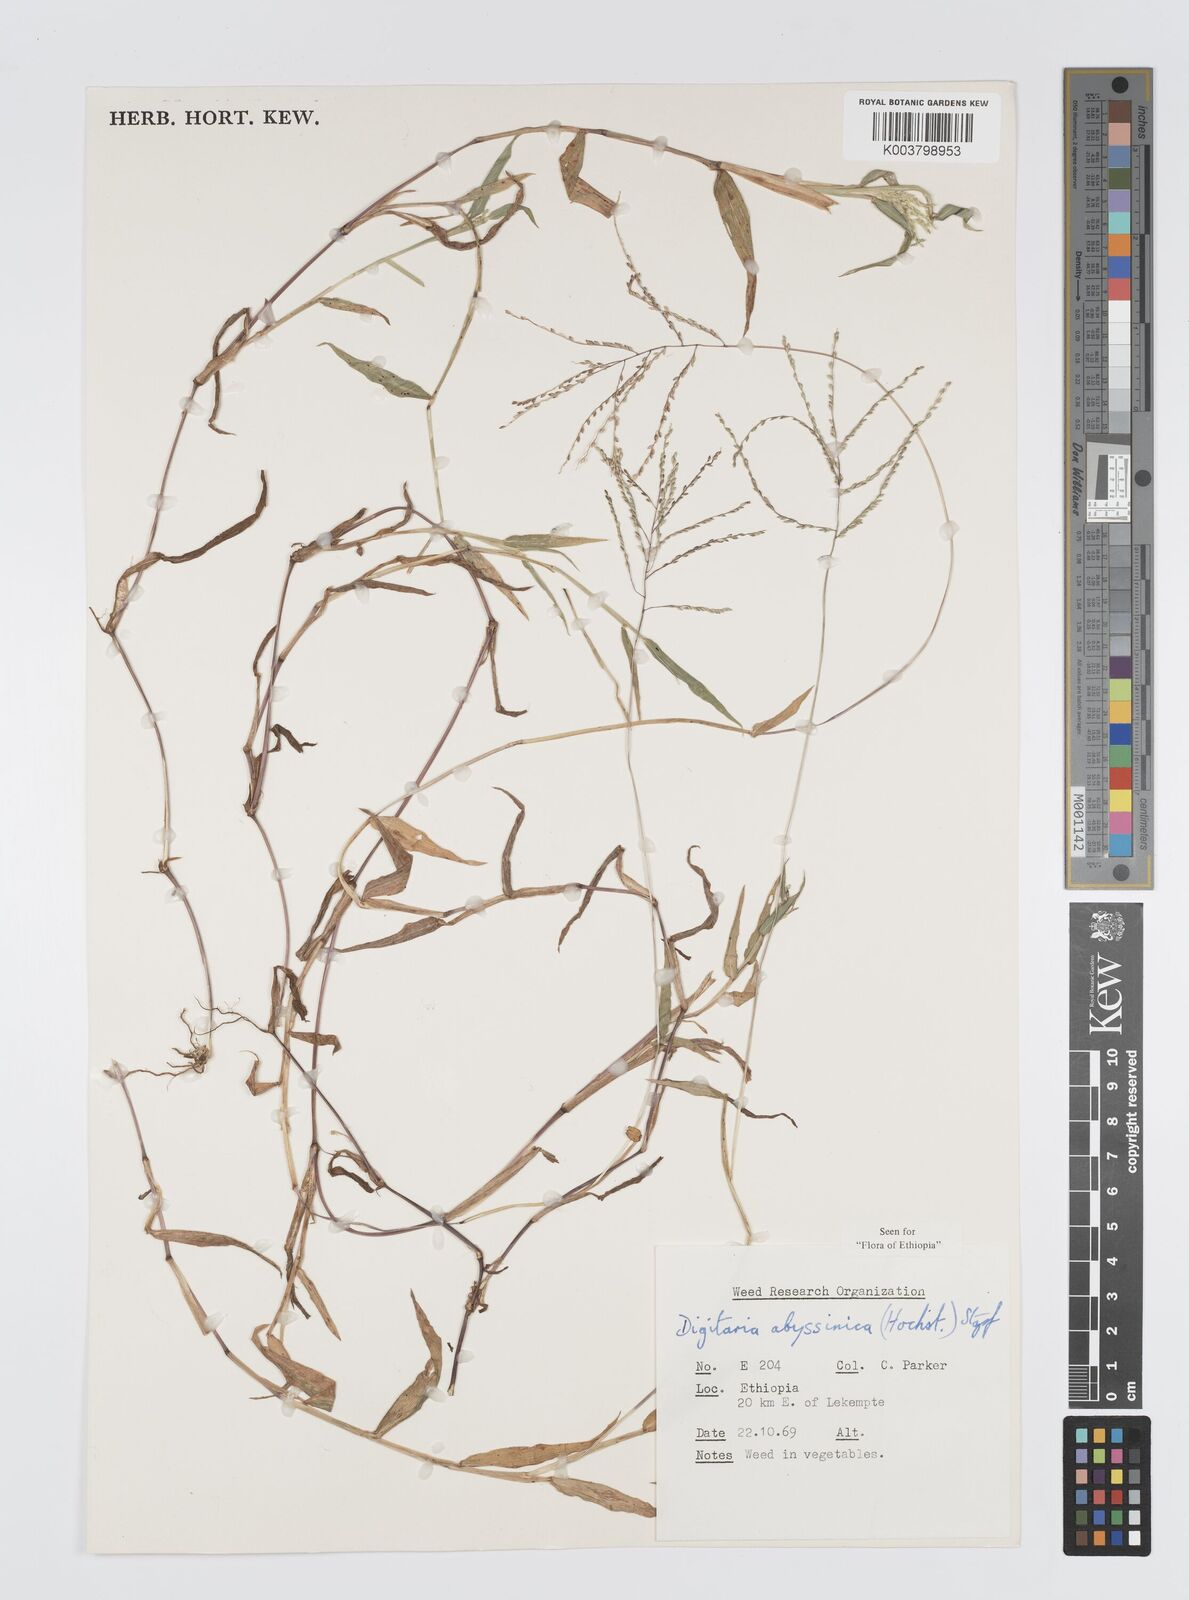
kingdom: Plantae
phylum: Tracheophyta
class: Liliopsida
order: Poales
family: Poaceae
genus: Digitaria
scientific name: Digitaria abyssinica
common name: African couchgrass
